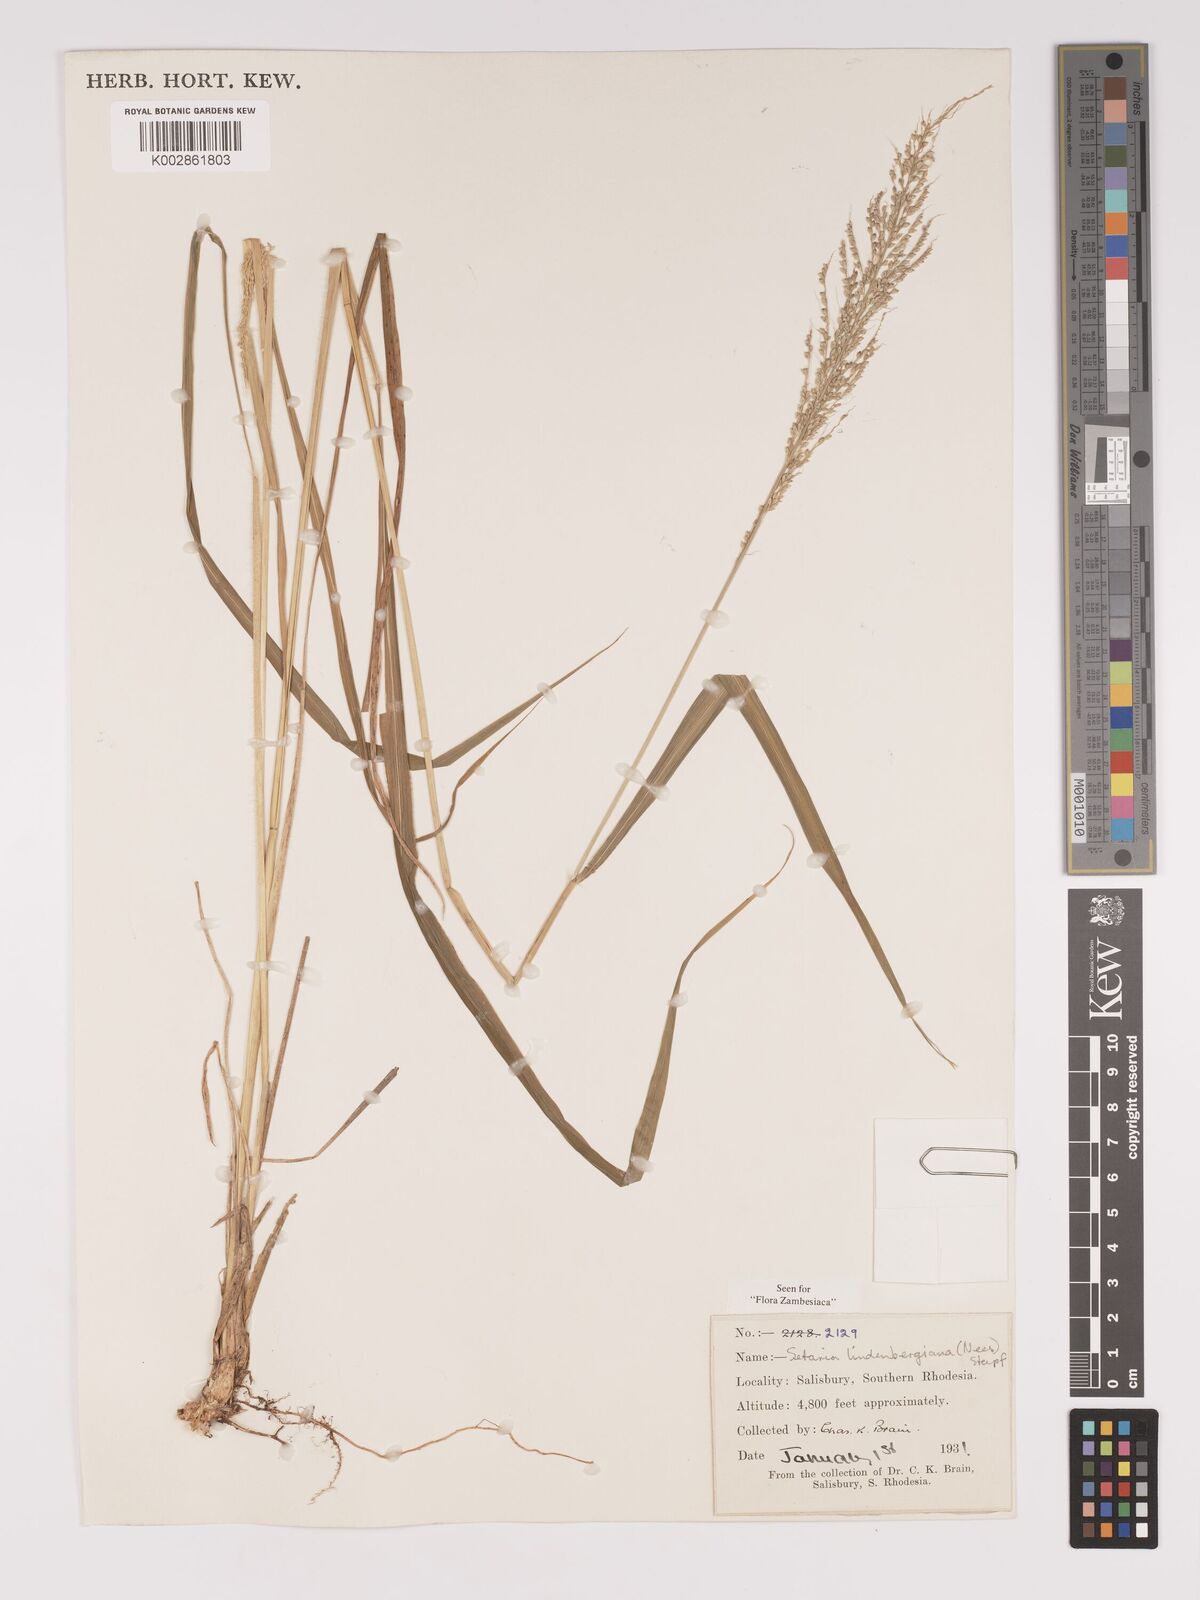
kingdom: Plantae
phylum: Tracheophyta
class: Liliopsida
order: Poales
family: Poaceae
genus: Setaria
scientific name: Setaria lindenbergiana
